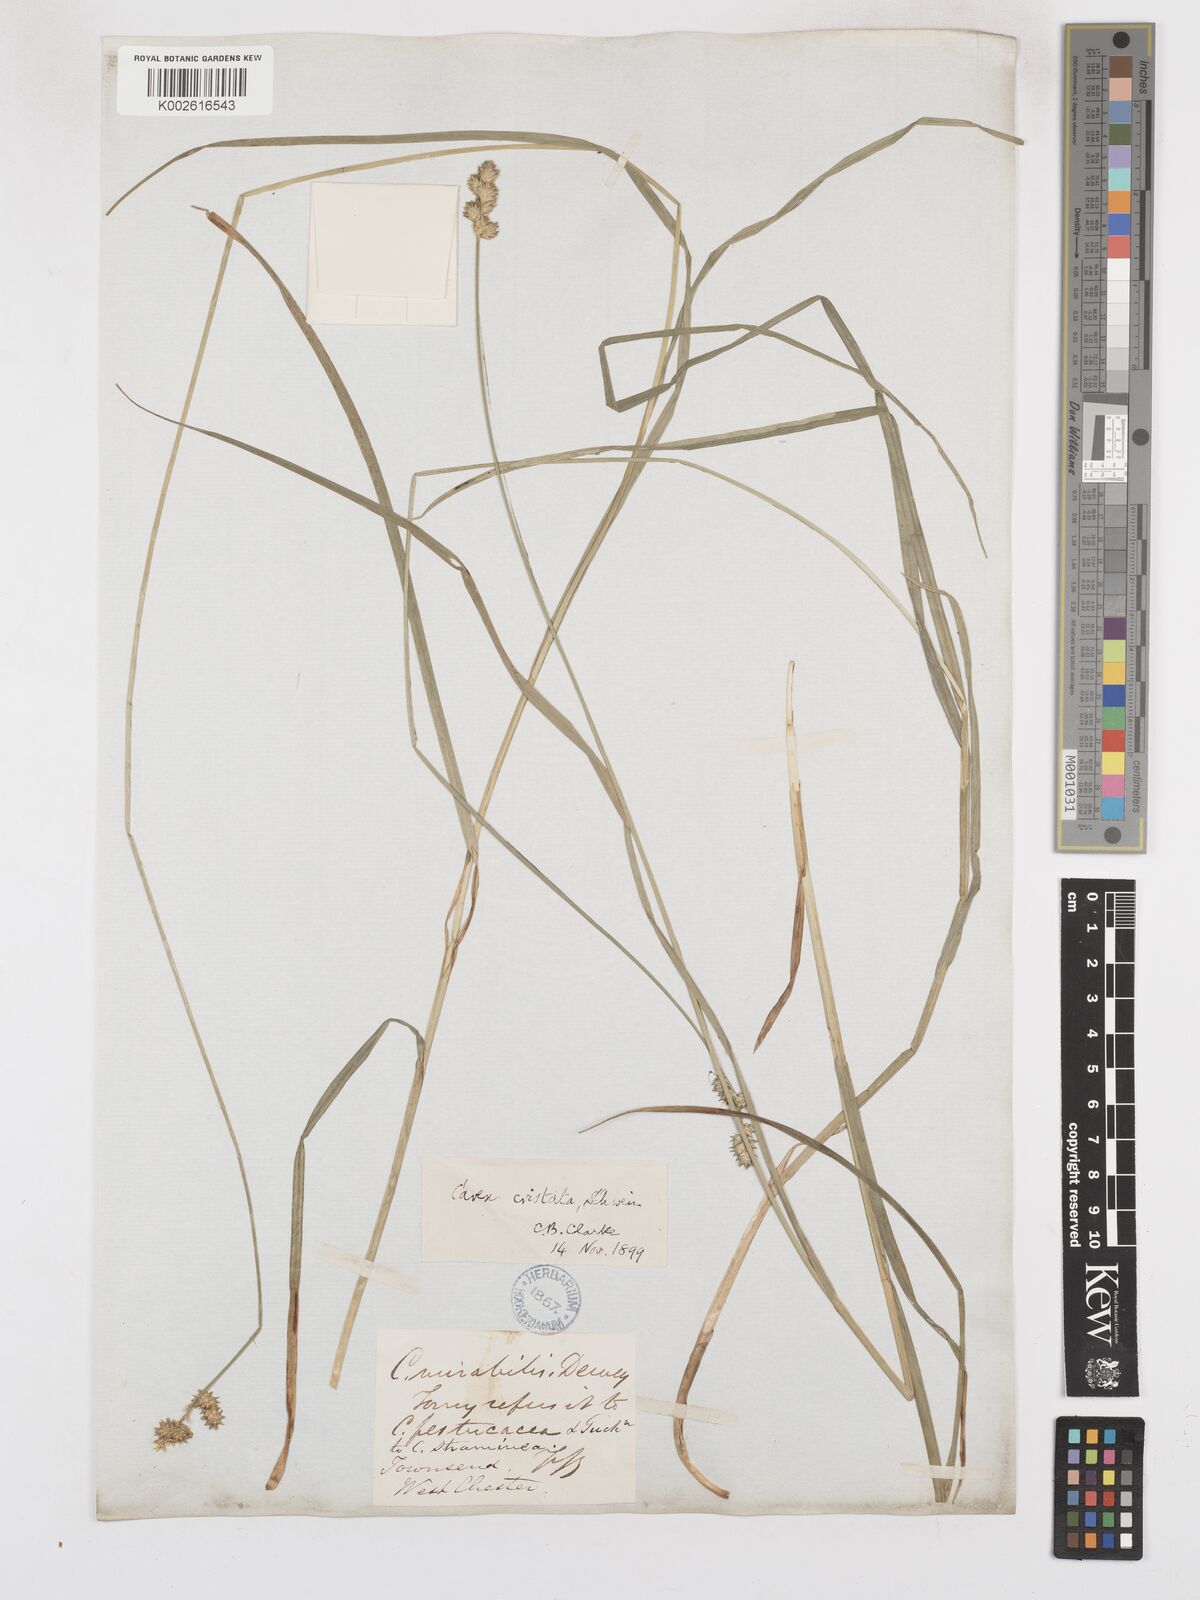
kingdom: Plantae
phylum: Tracheophyta
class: Liliopsida
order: Poales
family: Cyperaceae
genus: Carex
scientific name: Carex cristatella
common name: Crested oval sedge
